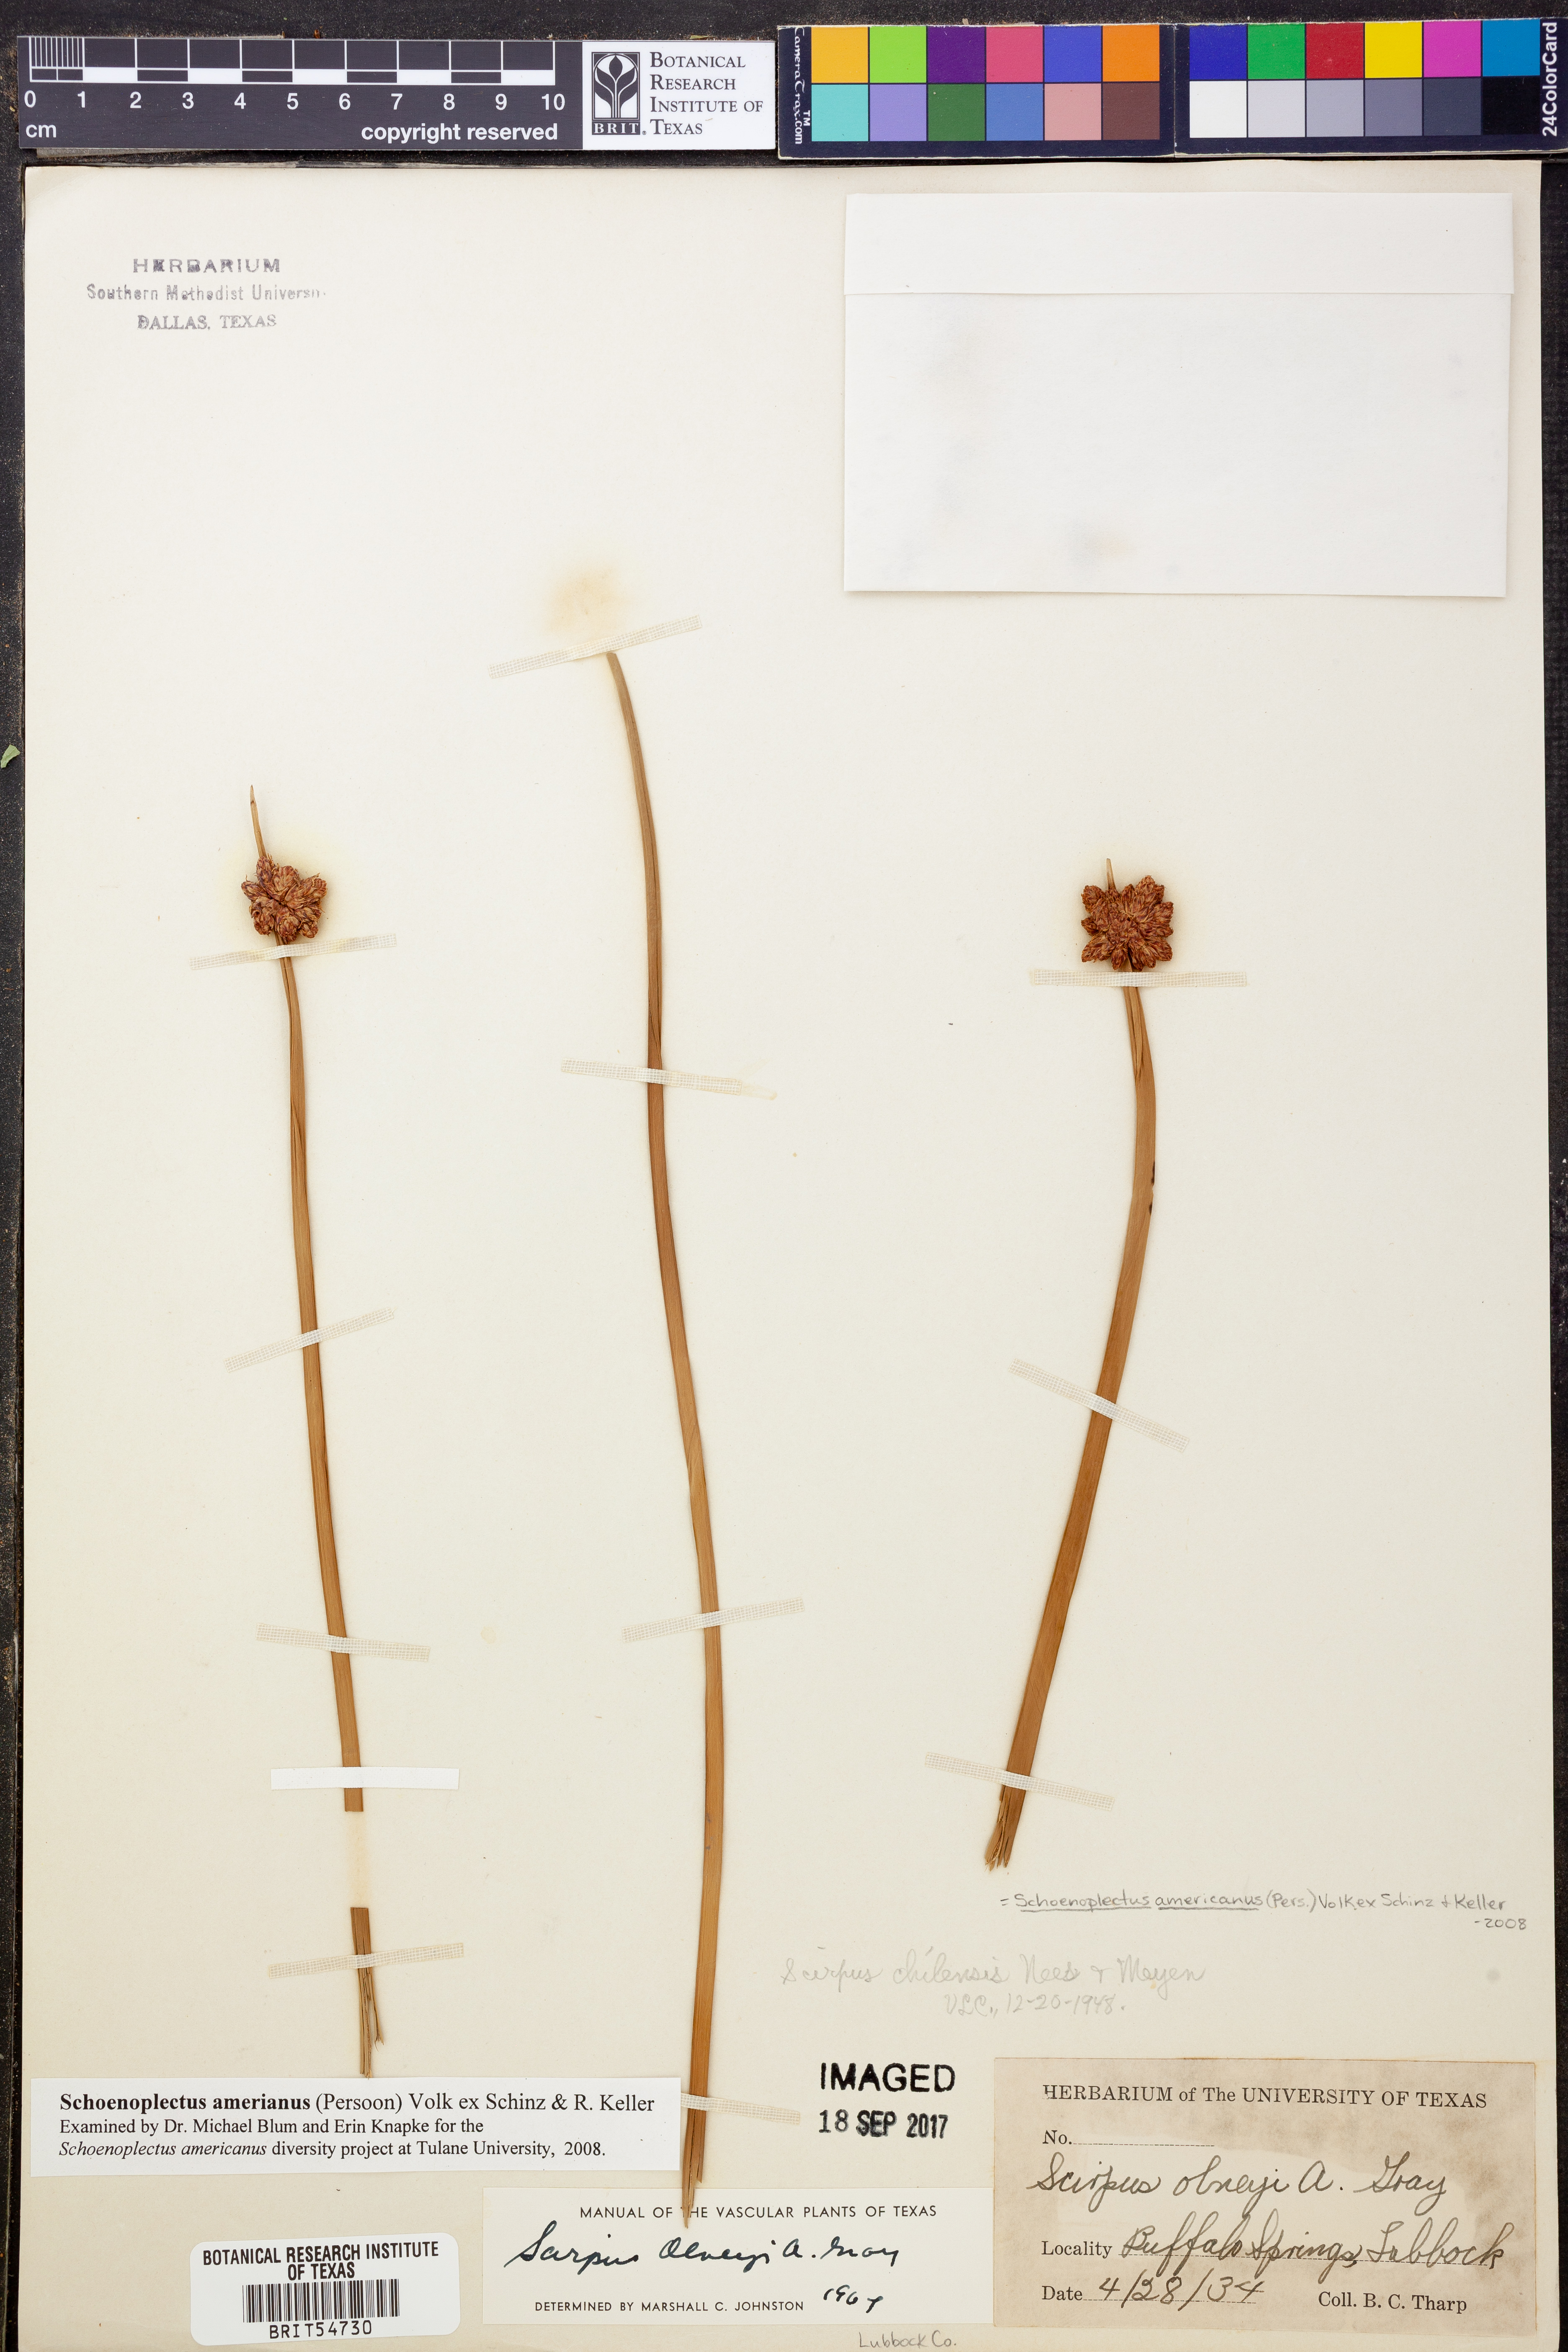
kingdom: Plantae
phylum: Tracheophyta
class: Liliopsida
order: Poales
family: Cyperaceae
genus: Schoenoplectus
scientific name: Schoenoplectus americanus
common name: American three-square bulrush
